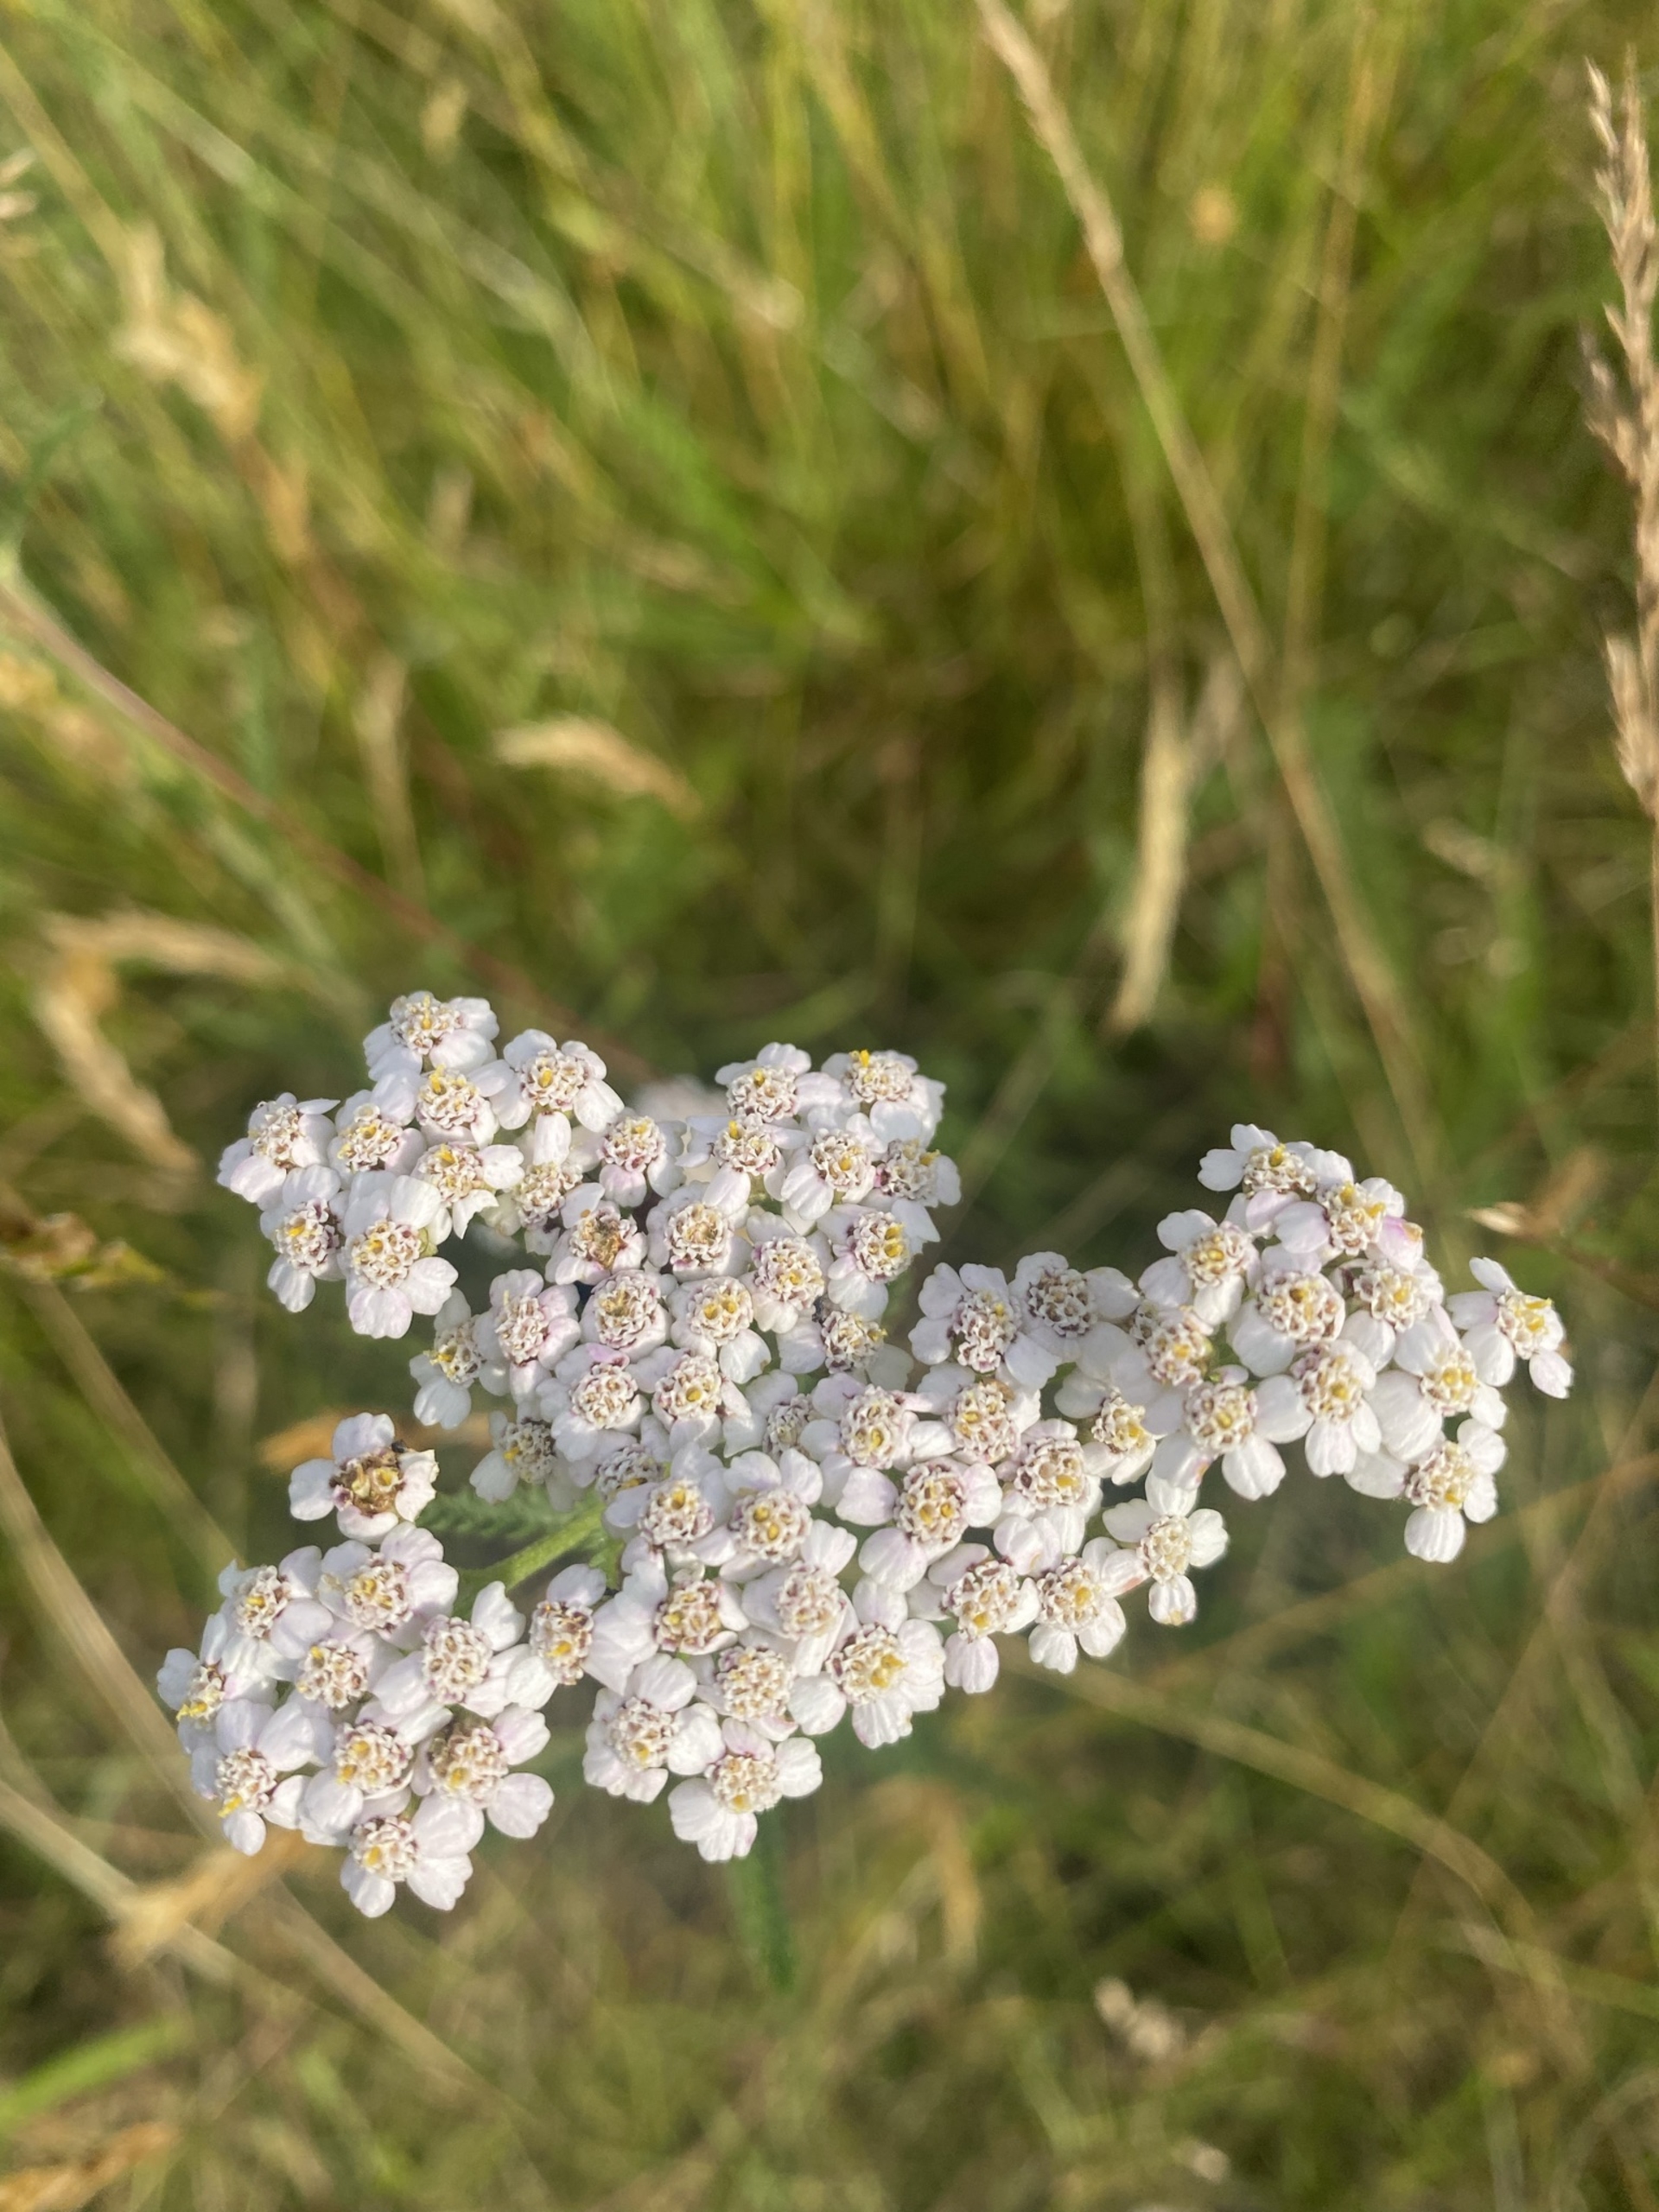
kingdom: Plantae
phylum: Tracheophyta
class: Magnoliopsida
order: Asterales
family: Asteraceae
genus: Achillea
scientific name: Achillea millefolium
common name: Almindelig røllike
